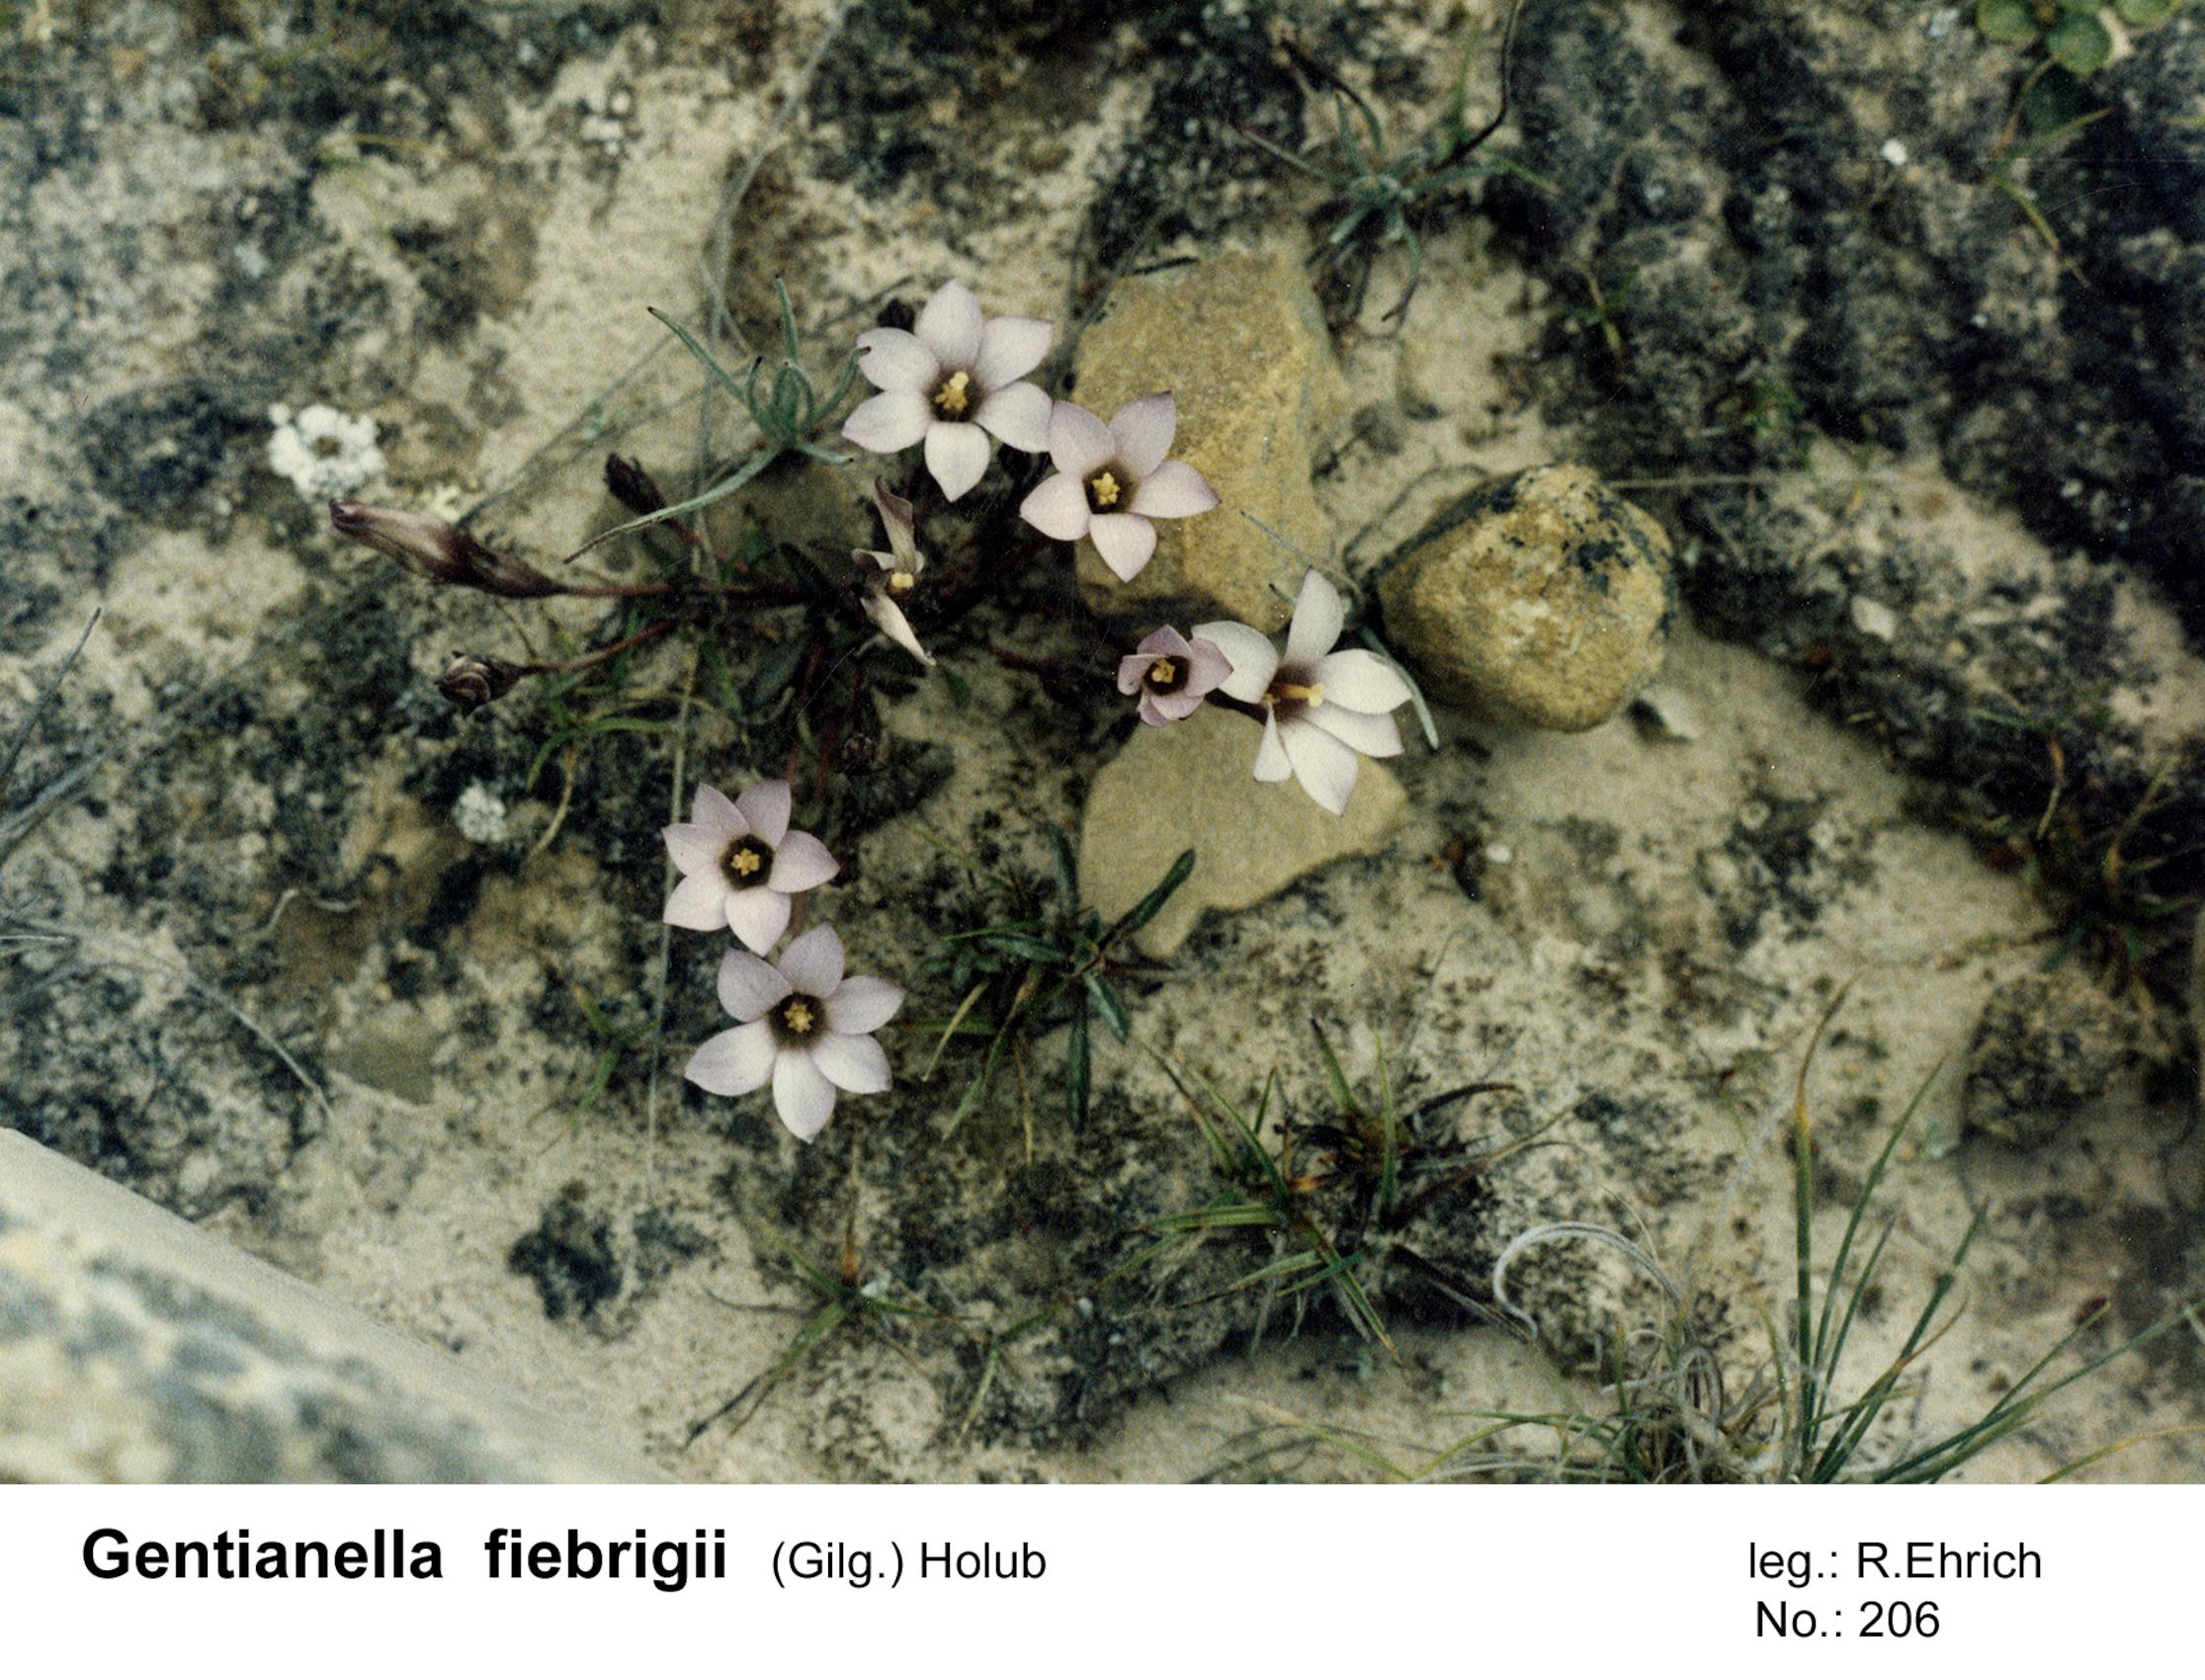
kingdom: Plantae
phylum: Tracheophyta
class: Magnoliopsida
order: Gentianales
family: Gentianaceae
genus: Gentianella
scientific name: Gentianella fiebrigii
